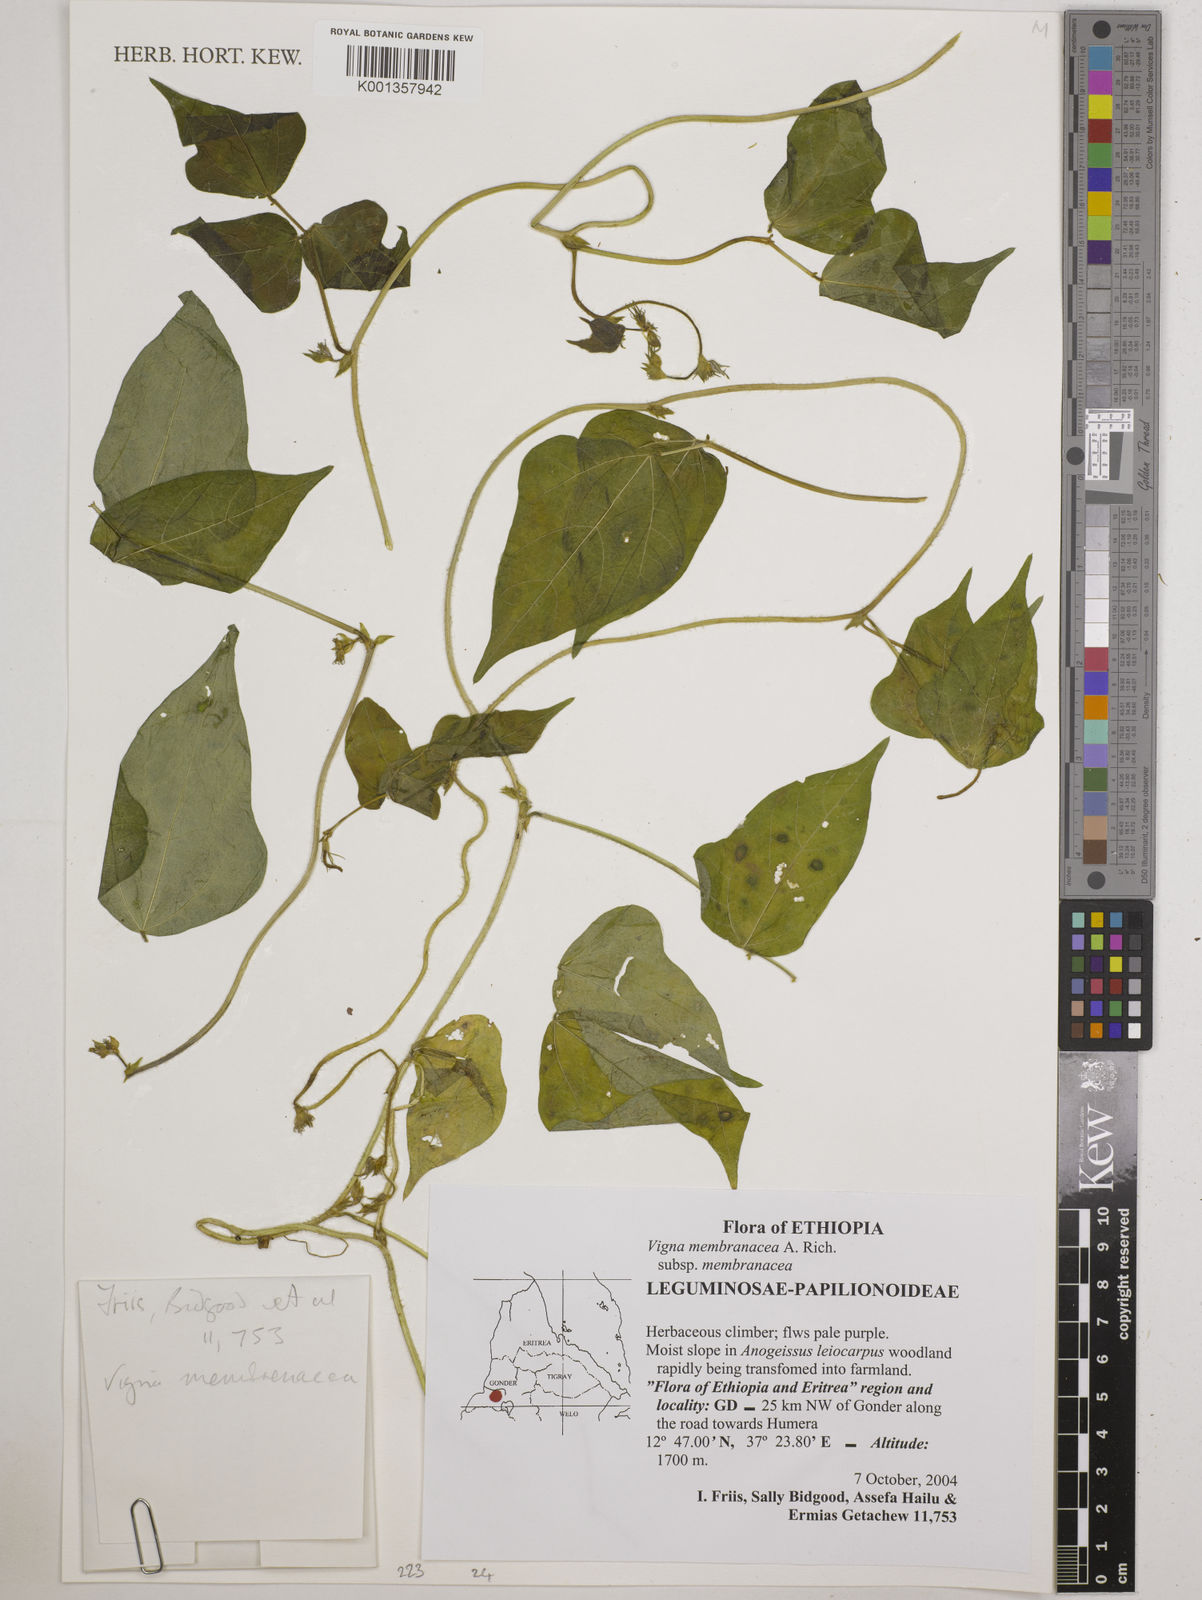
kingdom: Plantae
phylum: Tracheophyta
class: Magnoliopsida
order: Fabales
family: Fabaceae
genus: Vigna
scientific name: Vigna membranacea
